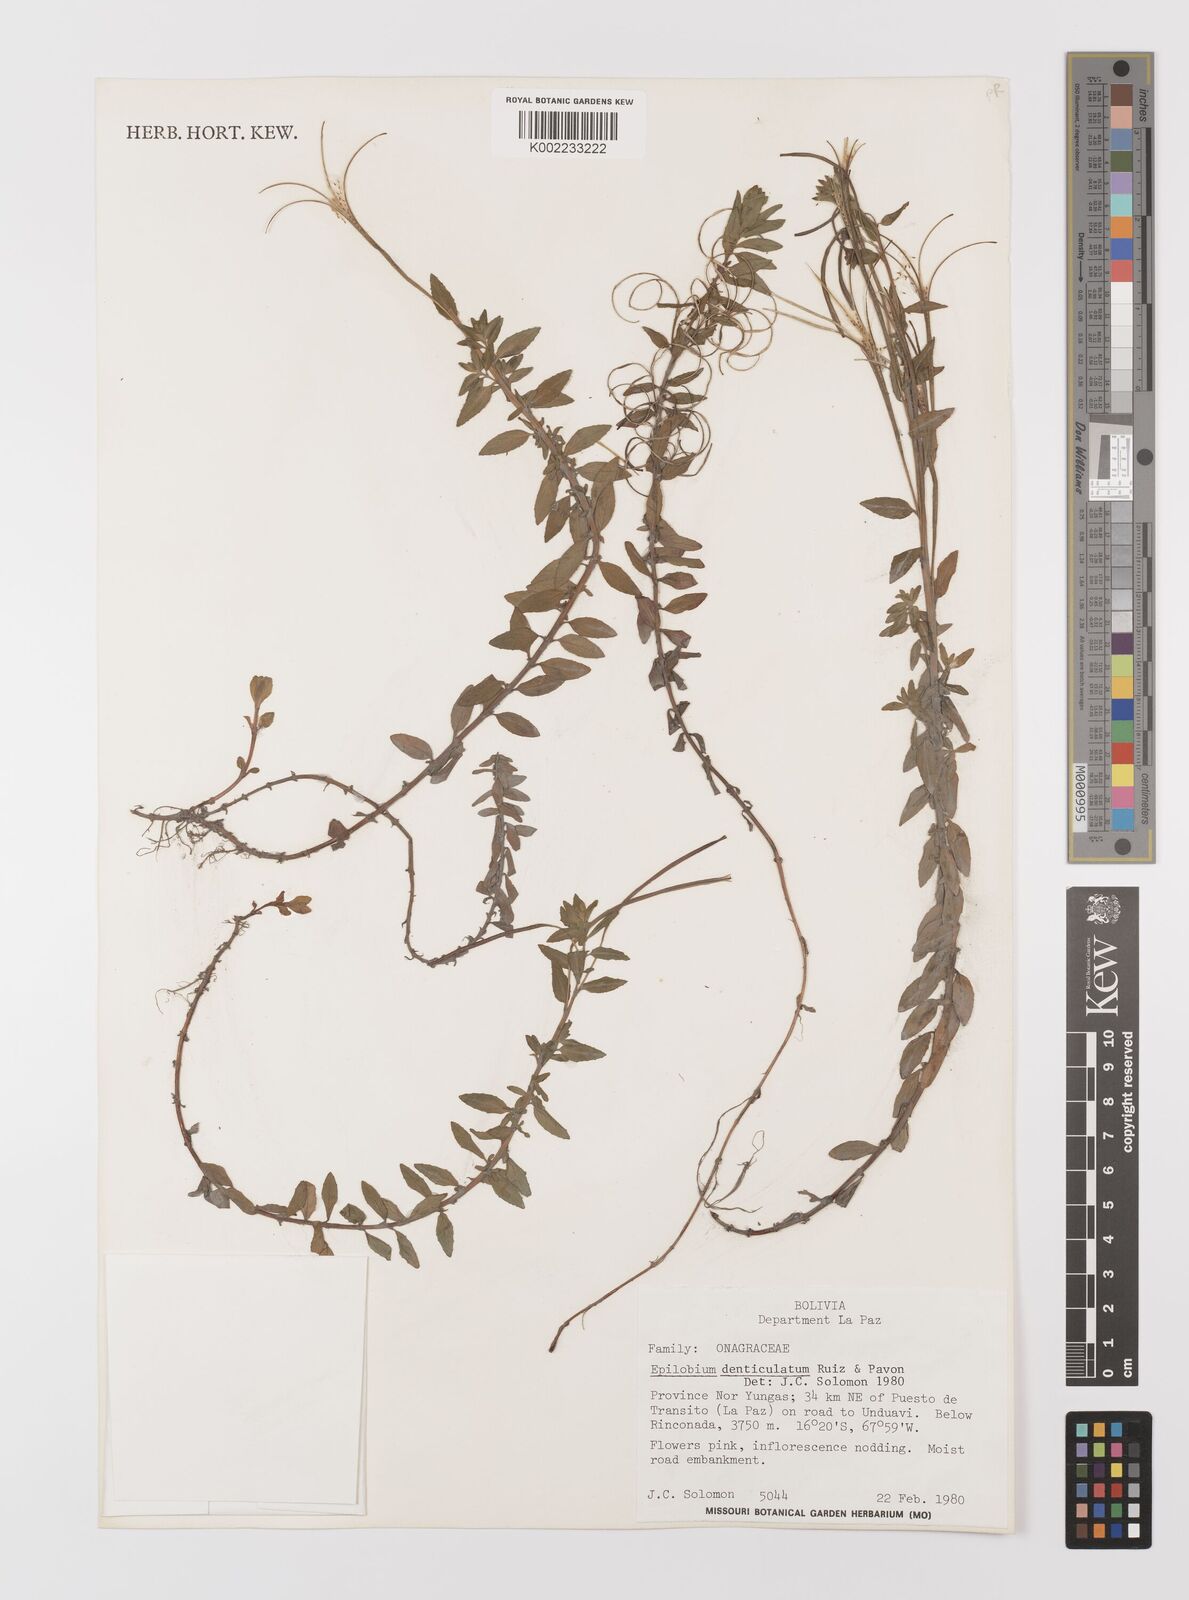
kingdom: Plantae
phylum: Tracheophyta
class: Magnoliopsida
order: Myrtales
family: Onagraceae
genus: Epilobium
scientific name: Epilobium denticulatum
